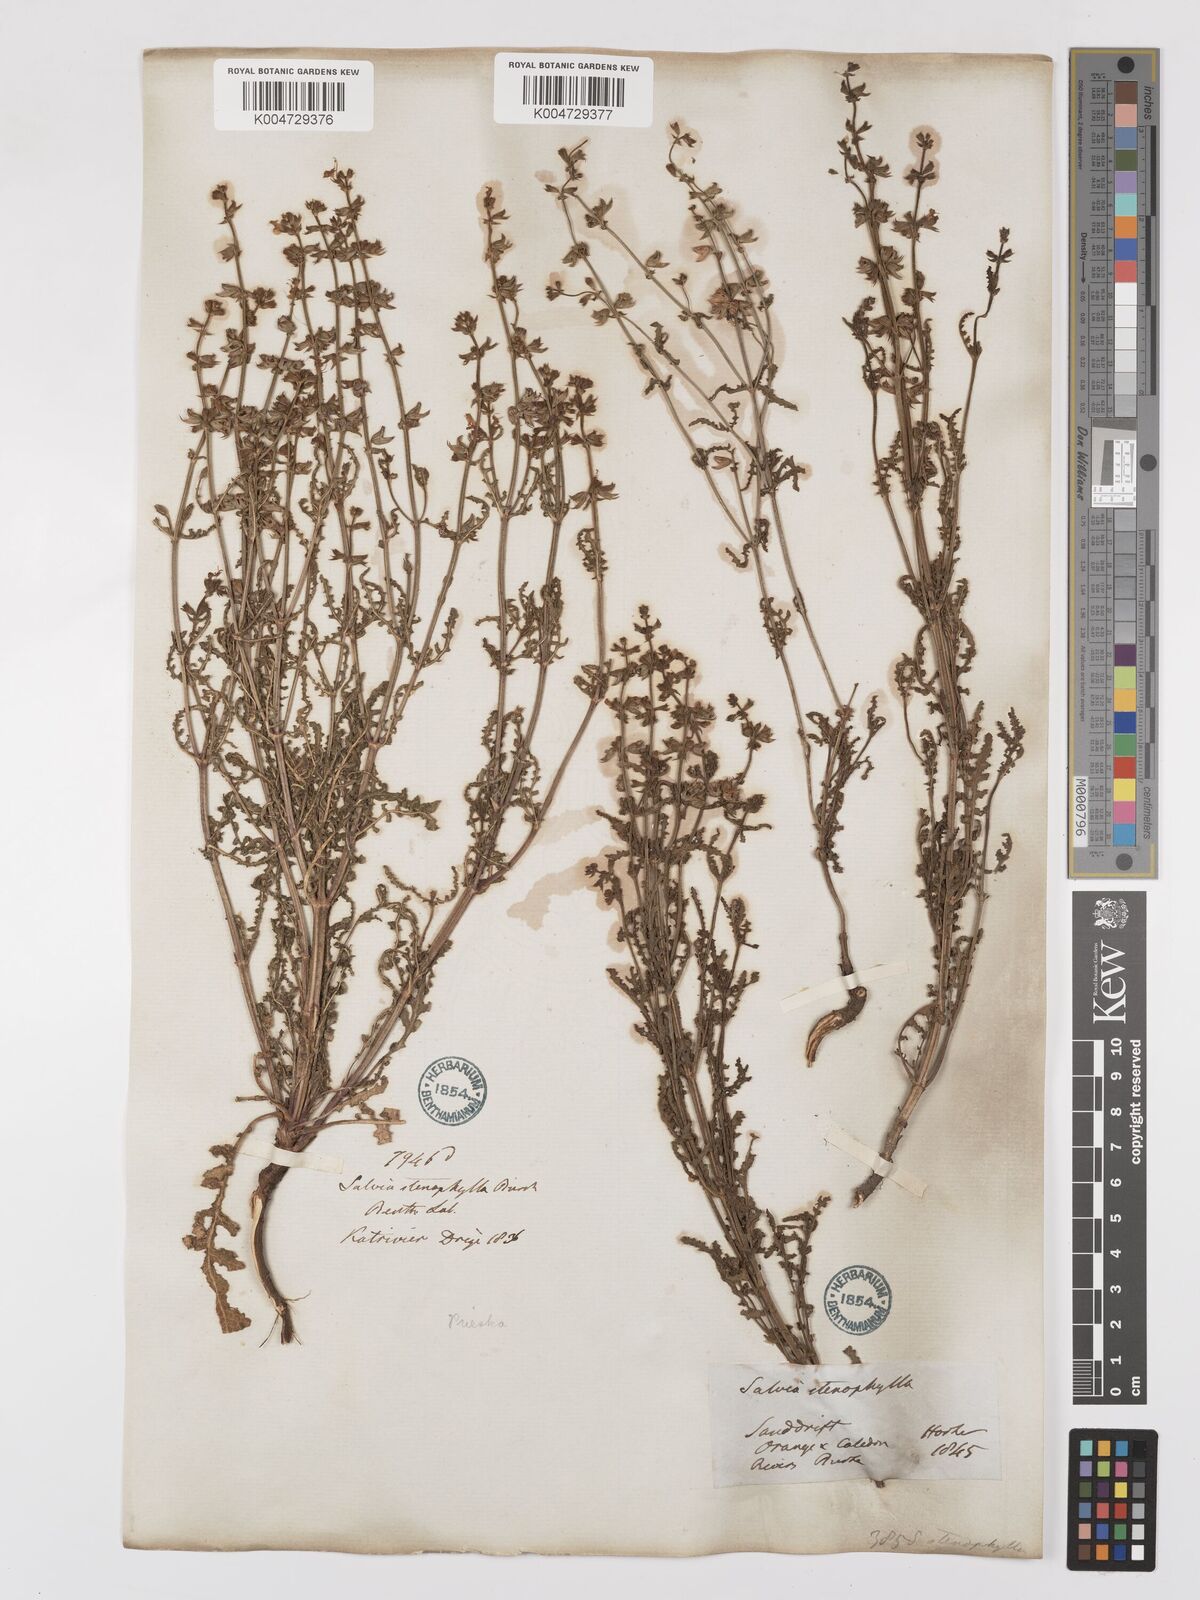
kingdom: Plantae
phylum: Tracheophyta
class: Magnoliopsida
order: Lamiales
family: Lamiaceae
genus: Salvia
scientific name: Salvia stenophylla
